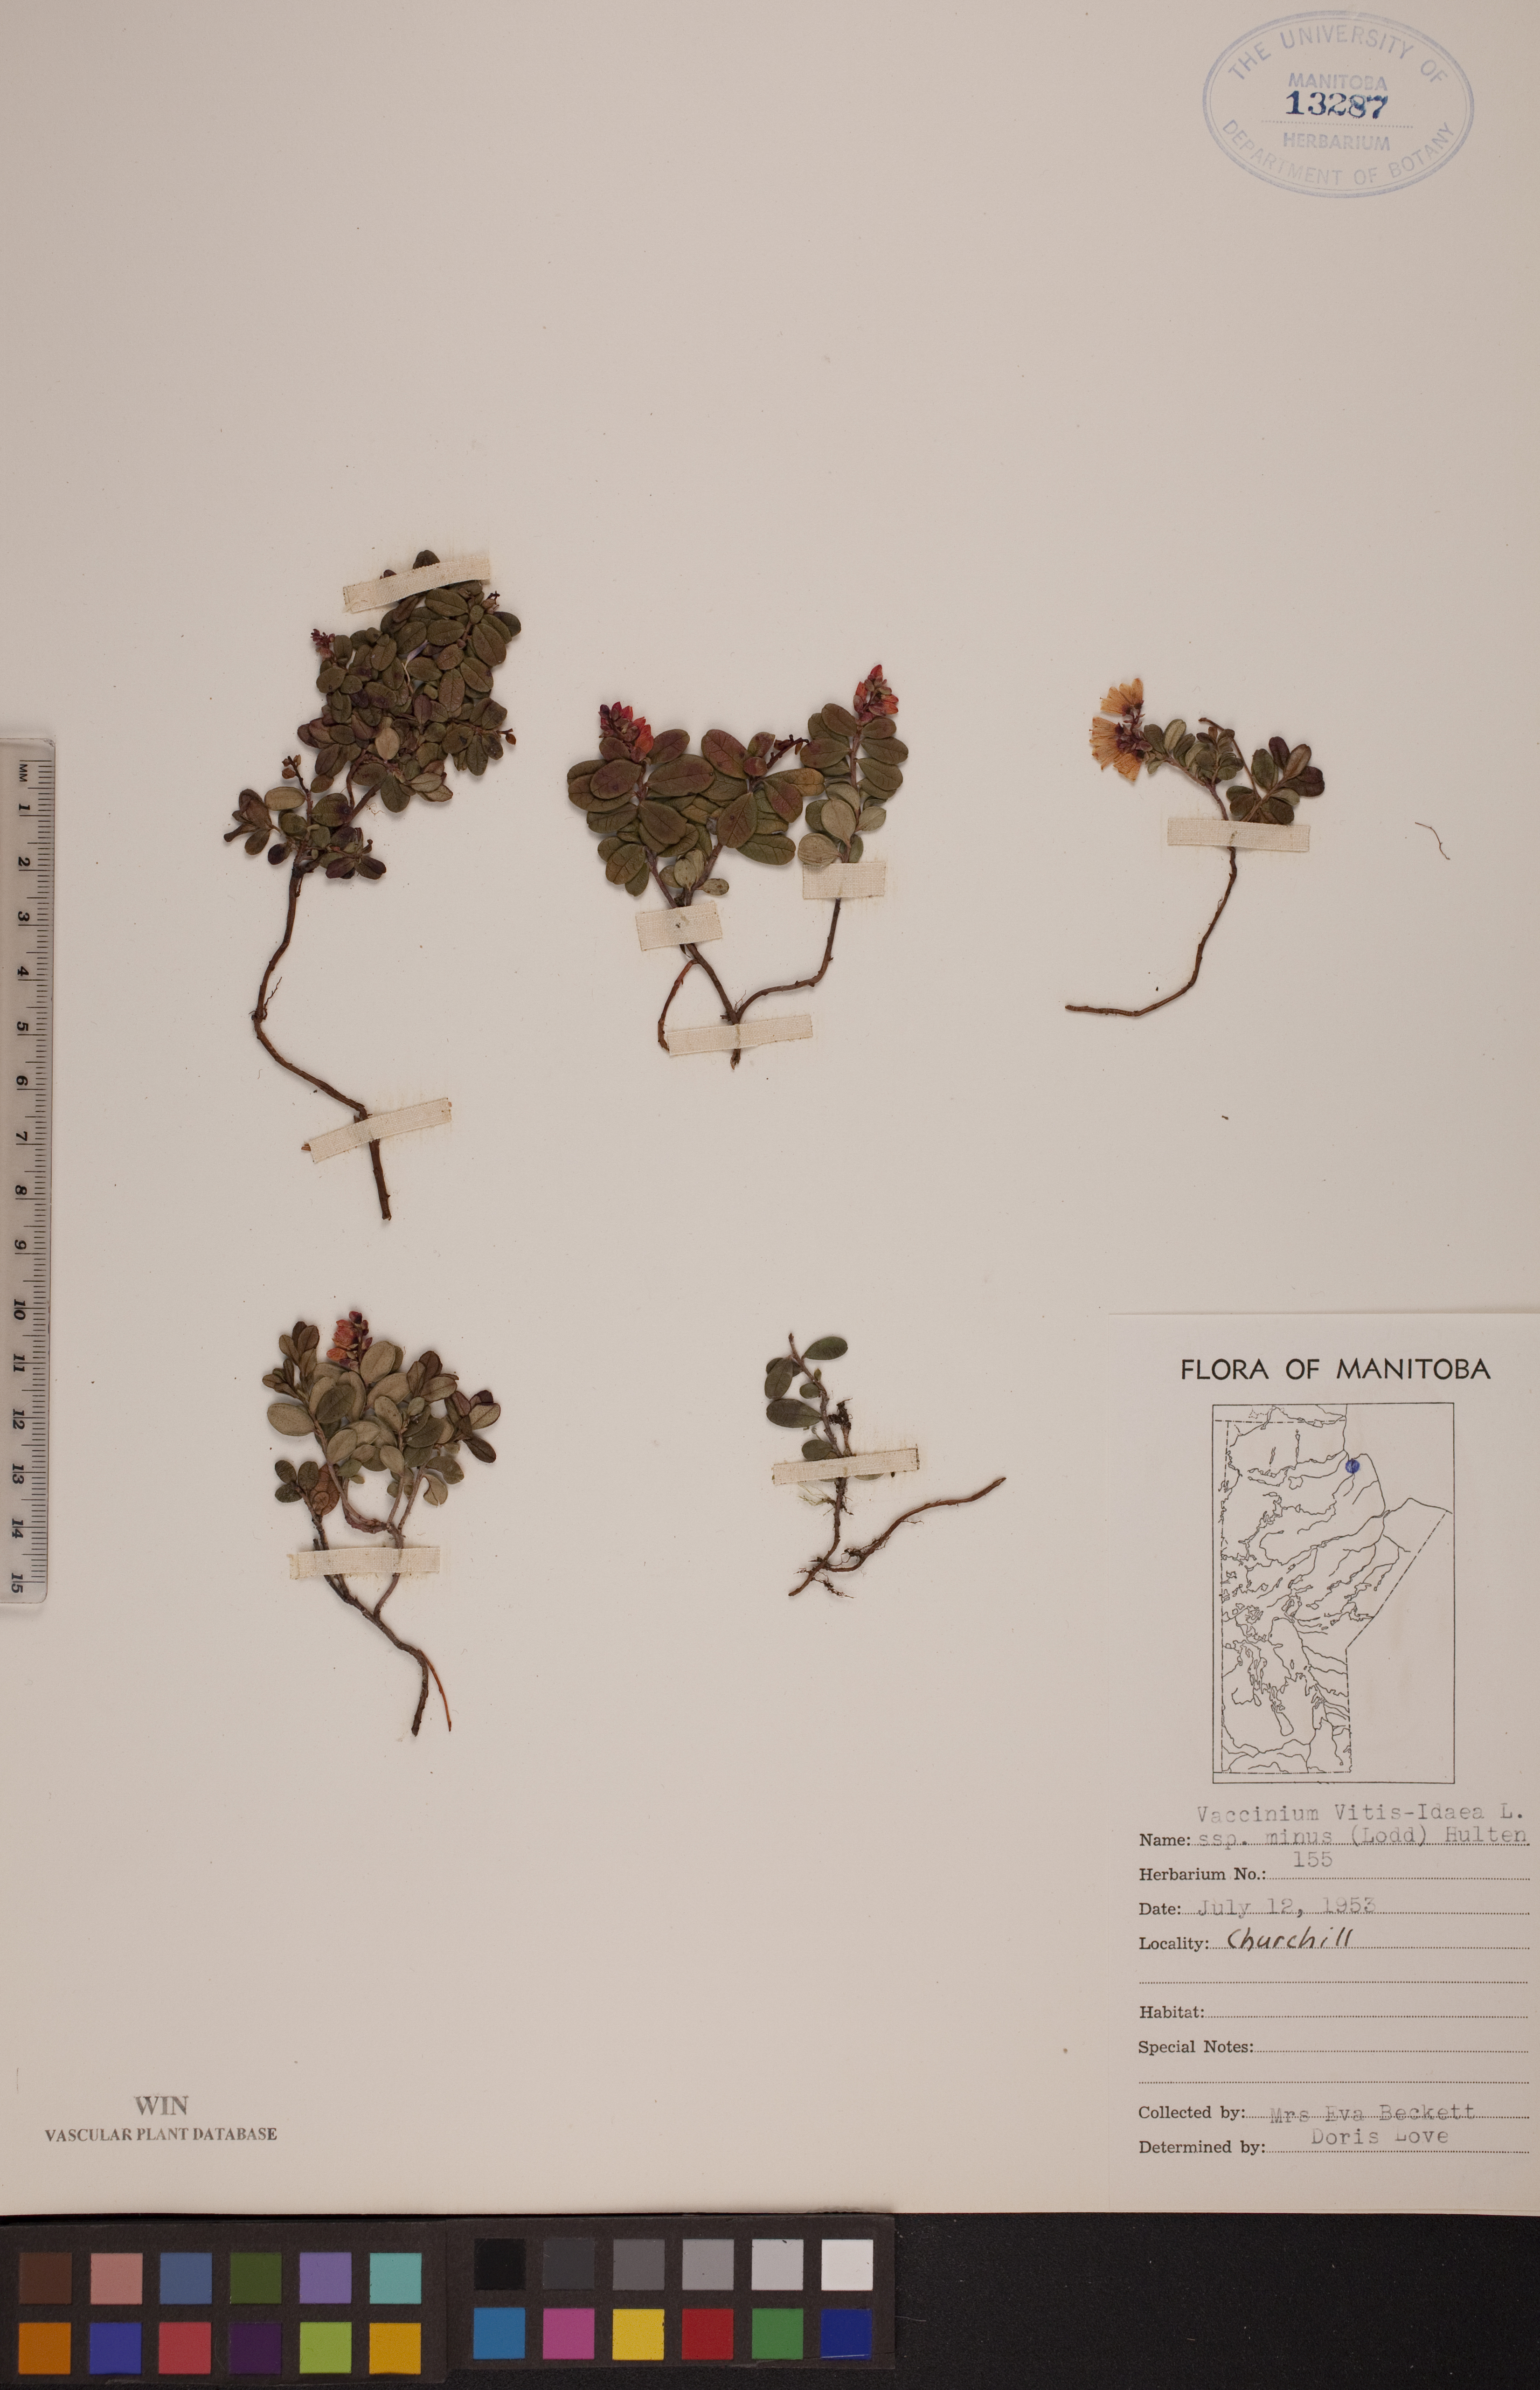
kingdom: Plantae
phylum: Tracheophyta
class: Magnoliopsida
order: Ericales
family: Ericaceae
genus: Vaccinium
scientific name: Vaccinium vitis-idaea
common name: Cowberry
